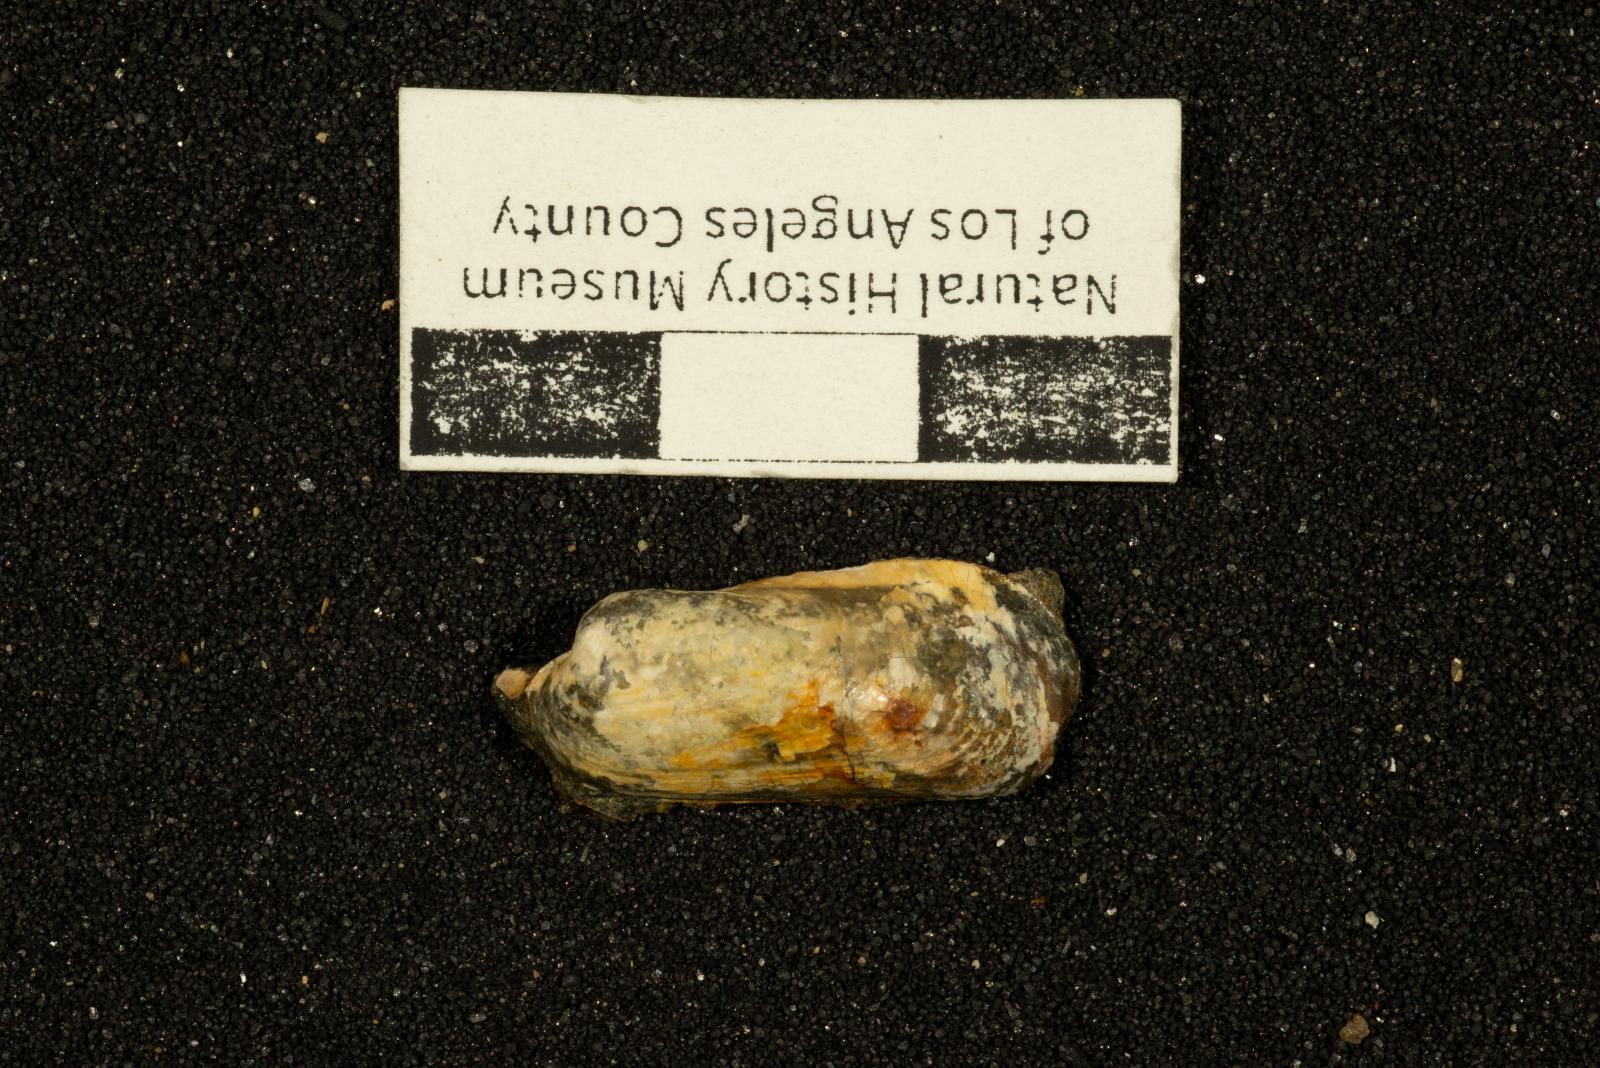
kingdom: Animalia
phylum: Mollusca
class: Bivalvia
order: Mytilida
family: Mytilidae
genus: Modiolus
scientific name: Modiolus
